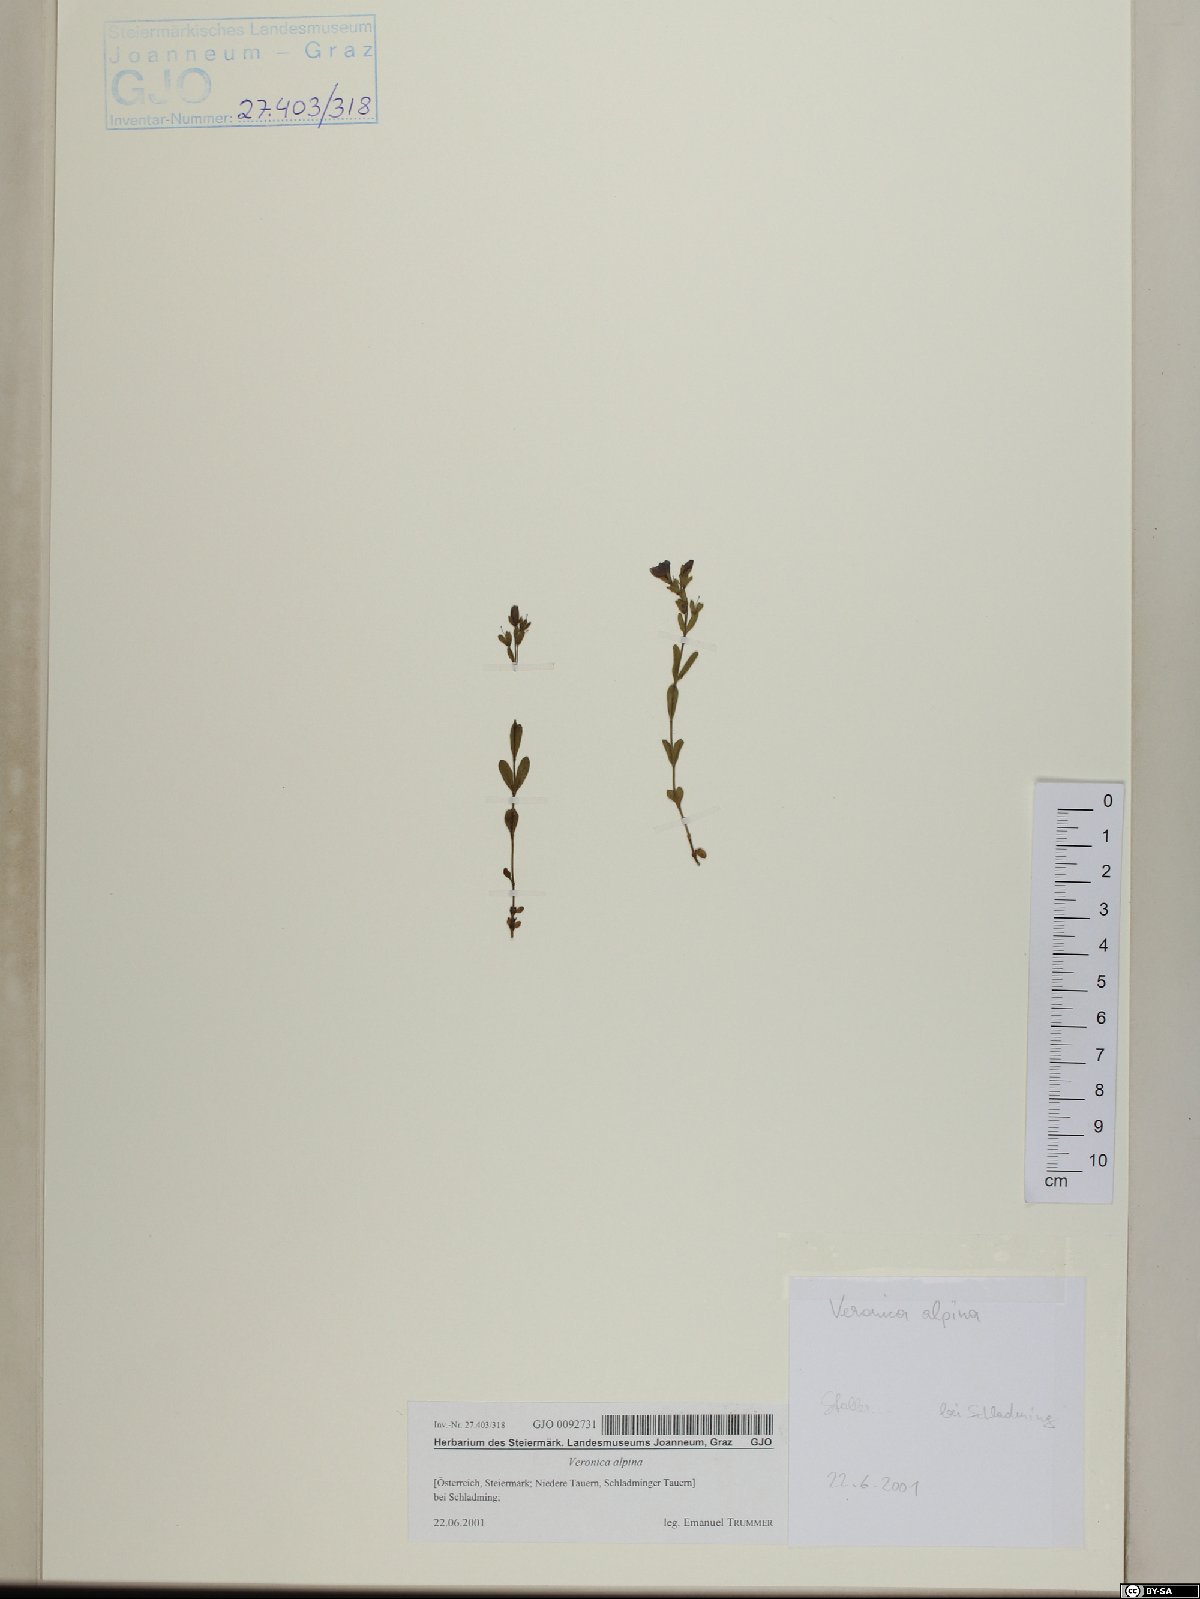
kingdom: Plantae
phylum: Tracheophyta
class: Magnoliopsida
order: Lamiales
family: Plantaginaceae
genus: Veronica
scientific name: Veronica alpina
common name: Alpine speedwell
